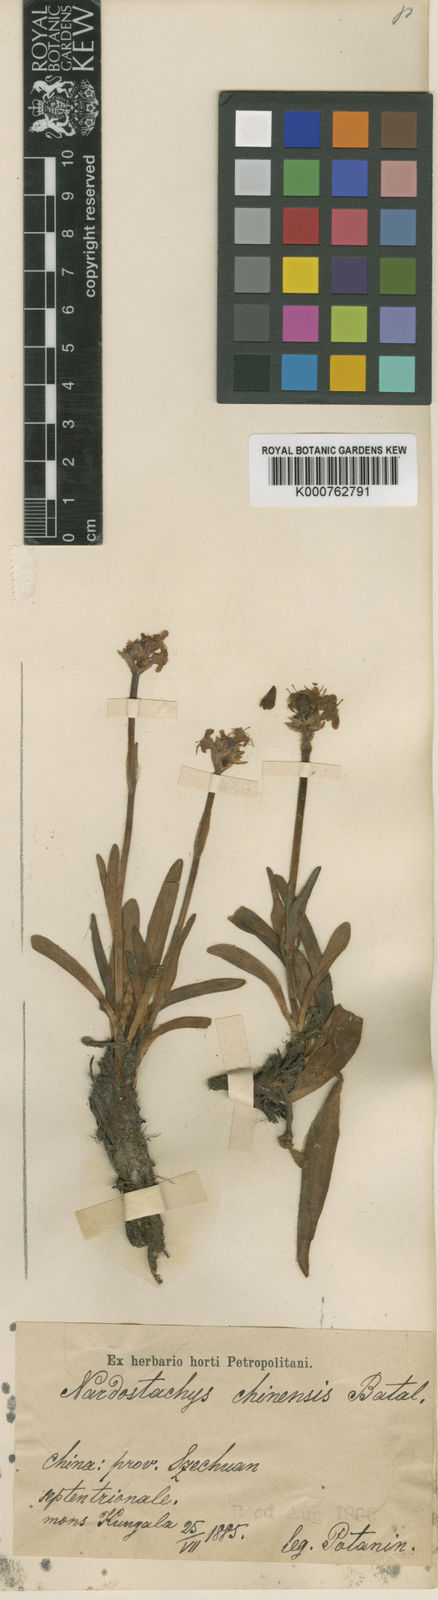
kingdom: Plantae
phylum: Tracheophyta
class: Magnoliopsida
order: Dipsacales
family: Caprifoliaceae
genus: Nardostachys
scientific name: Nardostachys jatamansi
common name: Indian nard
